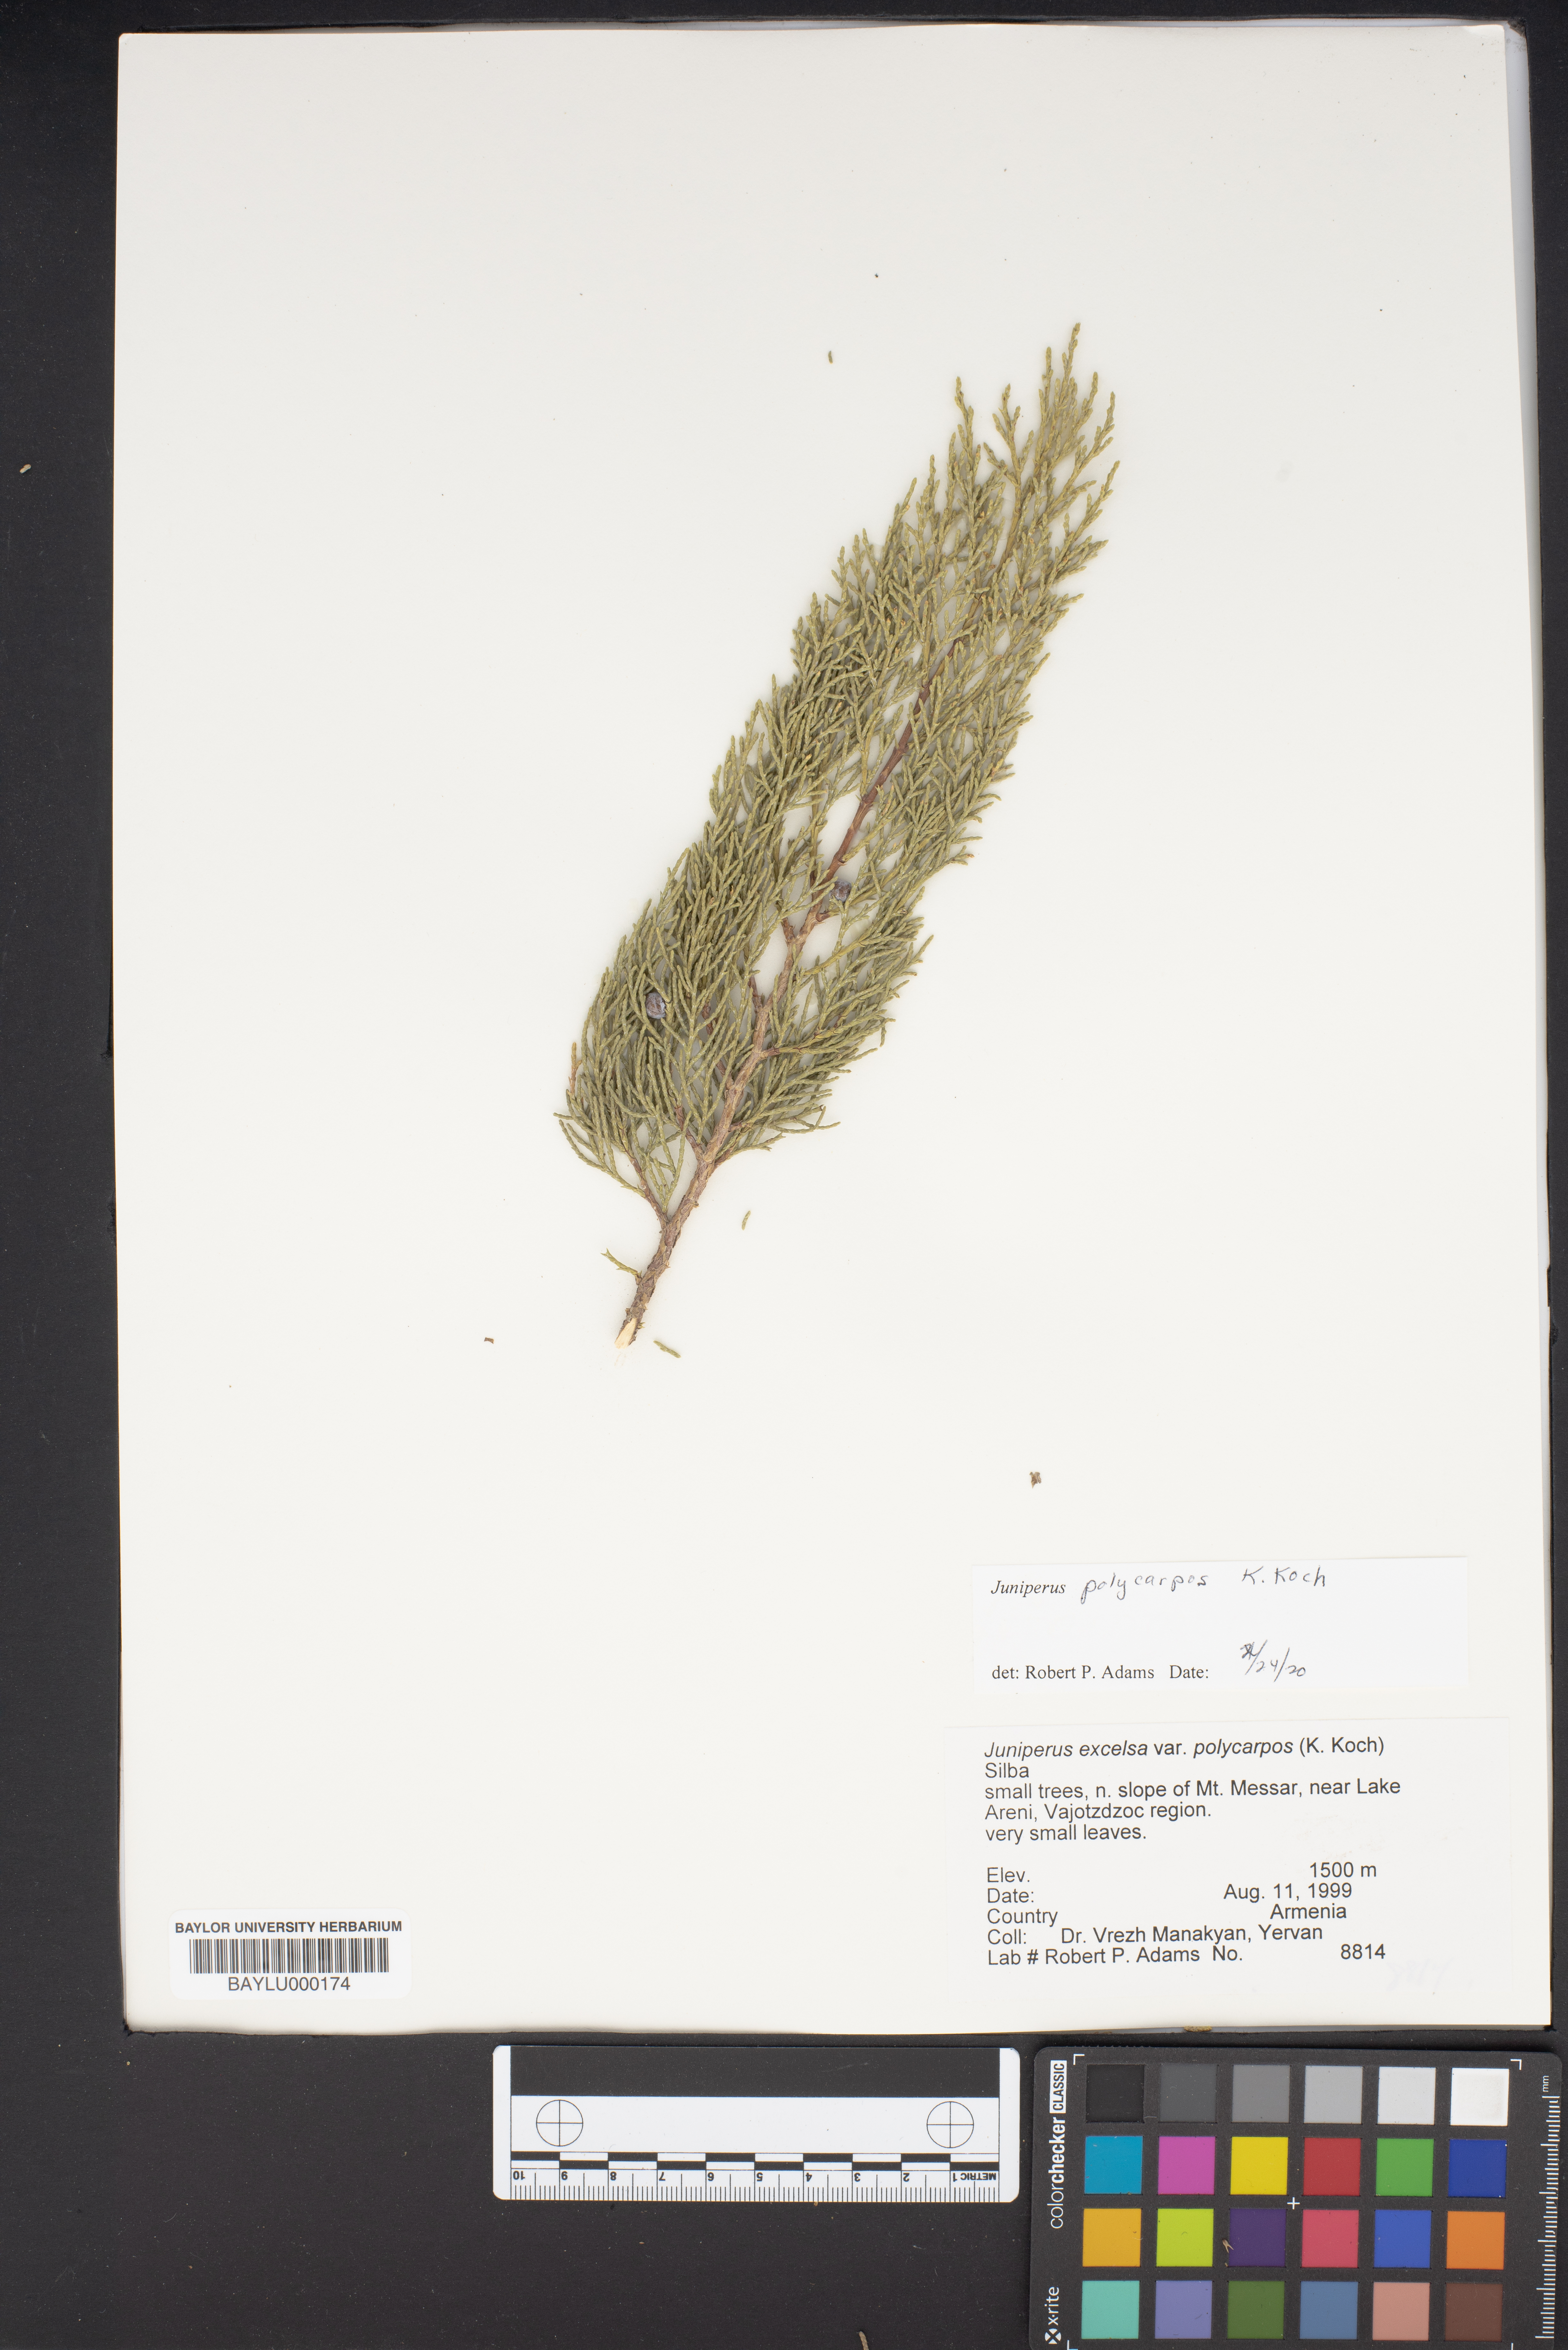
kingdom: Plantae
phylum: Tracheophyta
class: Pinopsida
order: Pinales
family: Cupressaceae
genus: Juniperus
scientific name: Juniperus excelsa
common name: Crimean juniper
